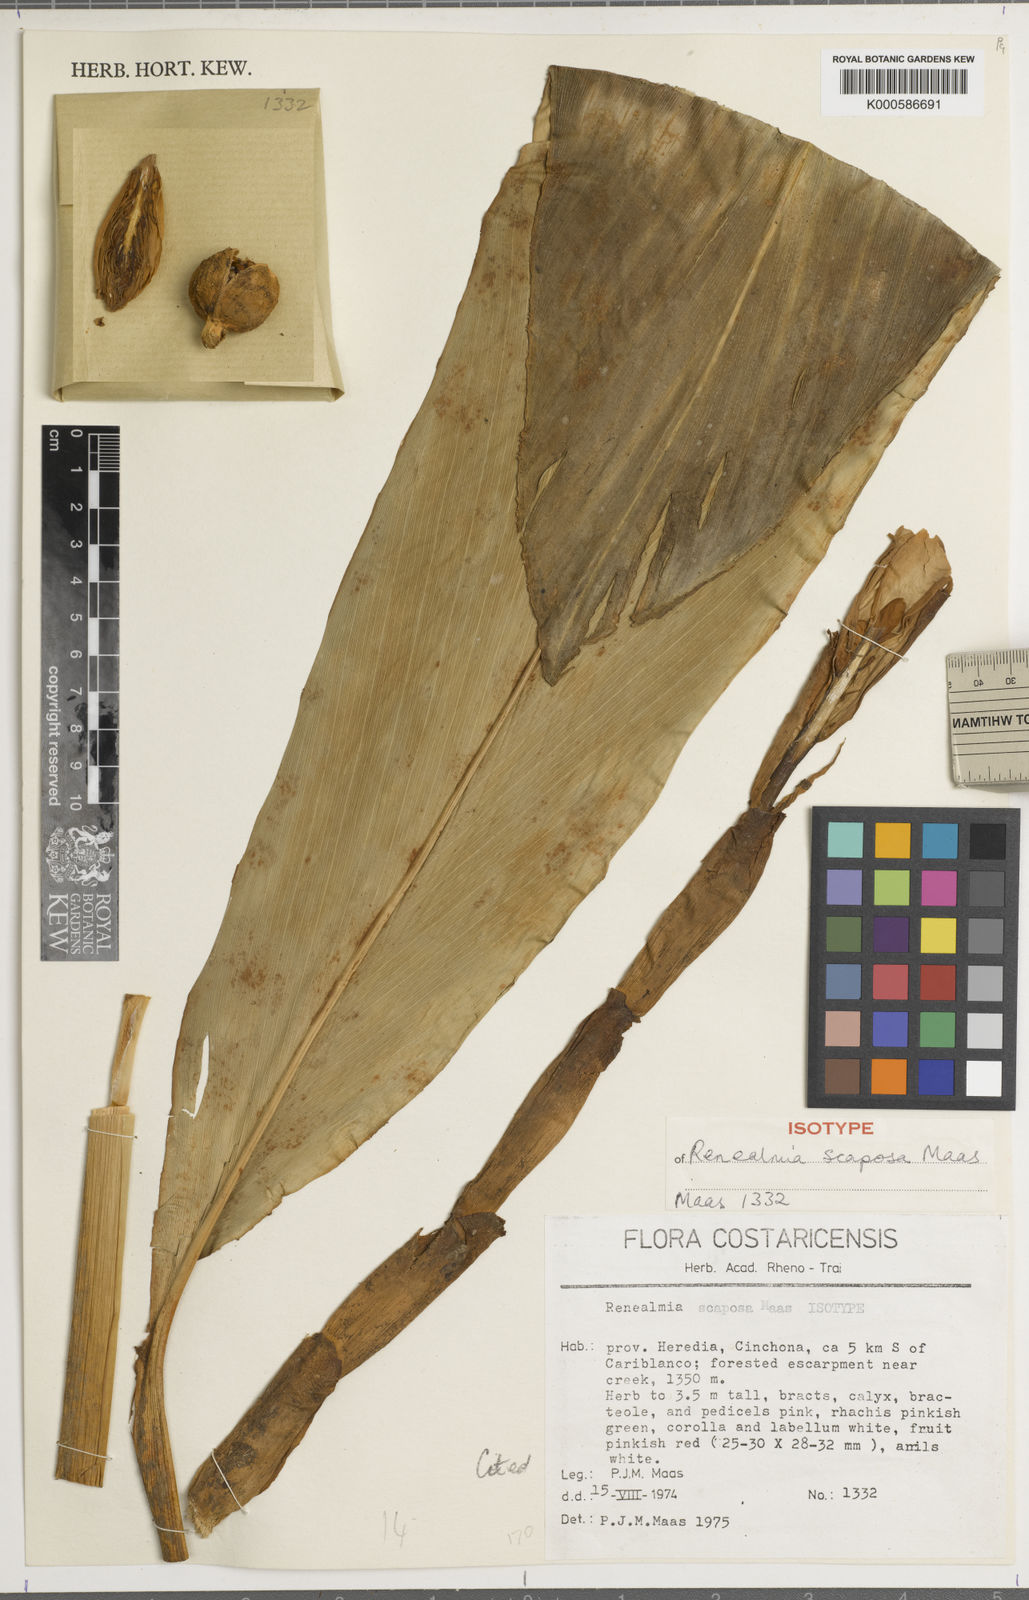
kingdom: Plantae
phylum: Tracheophyta
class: Liliopsida
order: Zingiberales
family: Zingiberaceae
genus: Renealmia
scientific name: Renealmia scaposa
